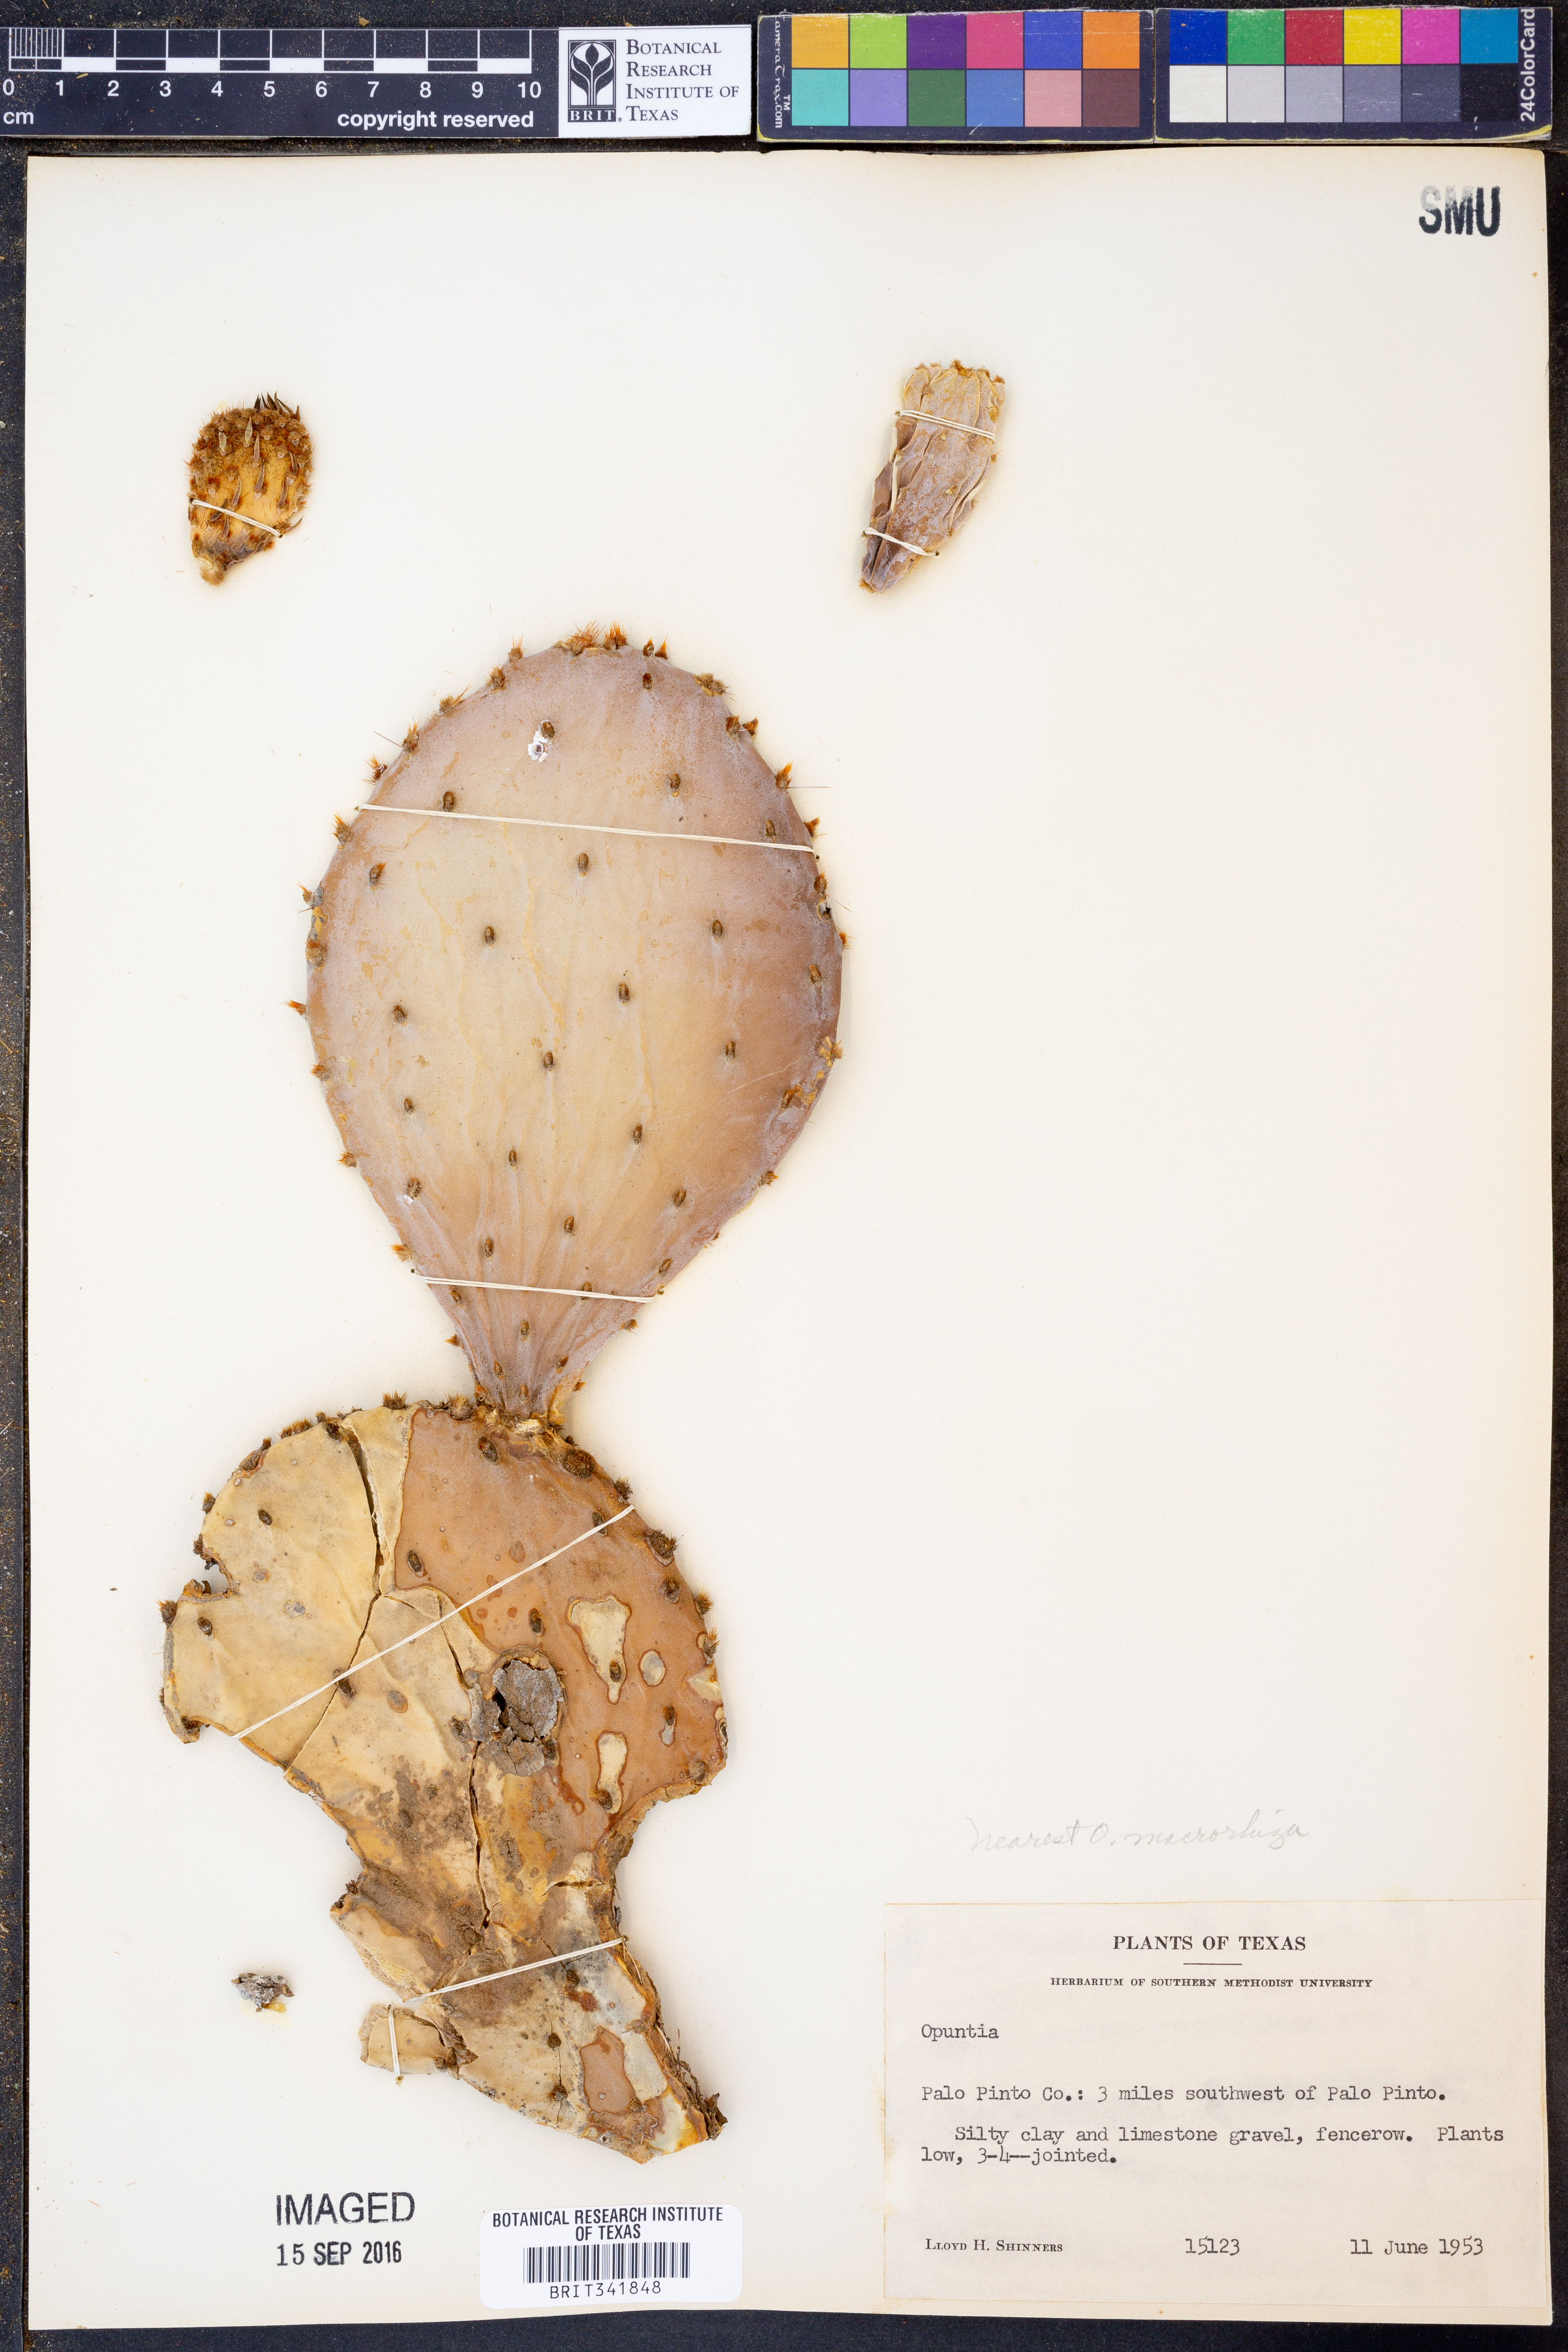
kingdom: Plantae
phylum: Tracheophyta
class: Magnoliopsida
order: Caryophyllales
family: Cactaceae
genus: Opuntia
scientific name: Opuntia macrorhiza
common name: Grassland pricklypear
